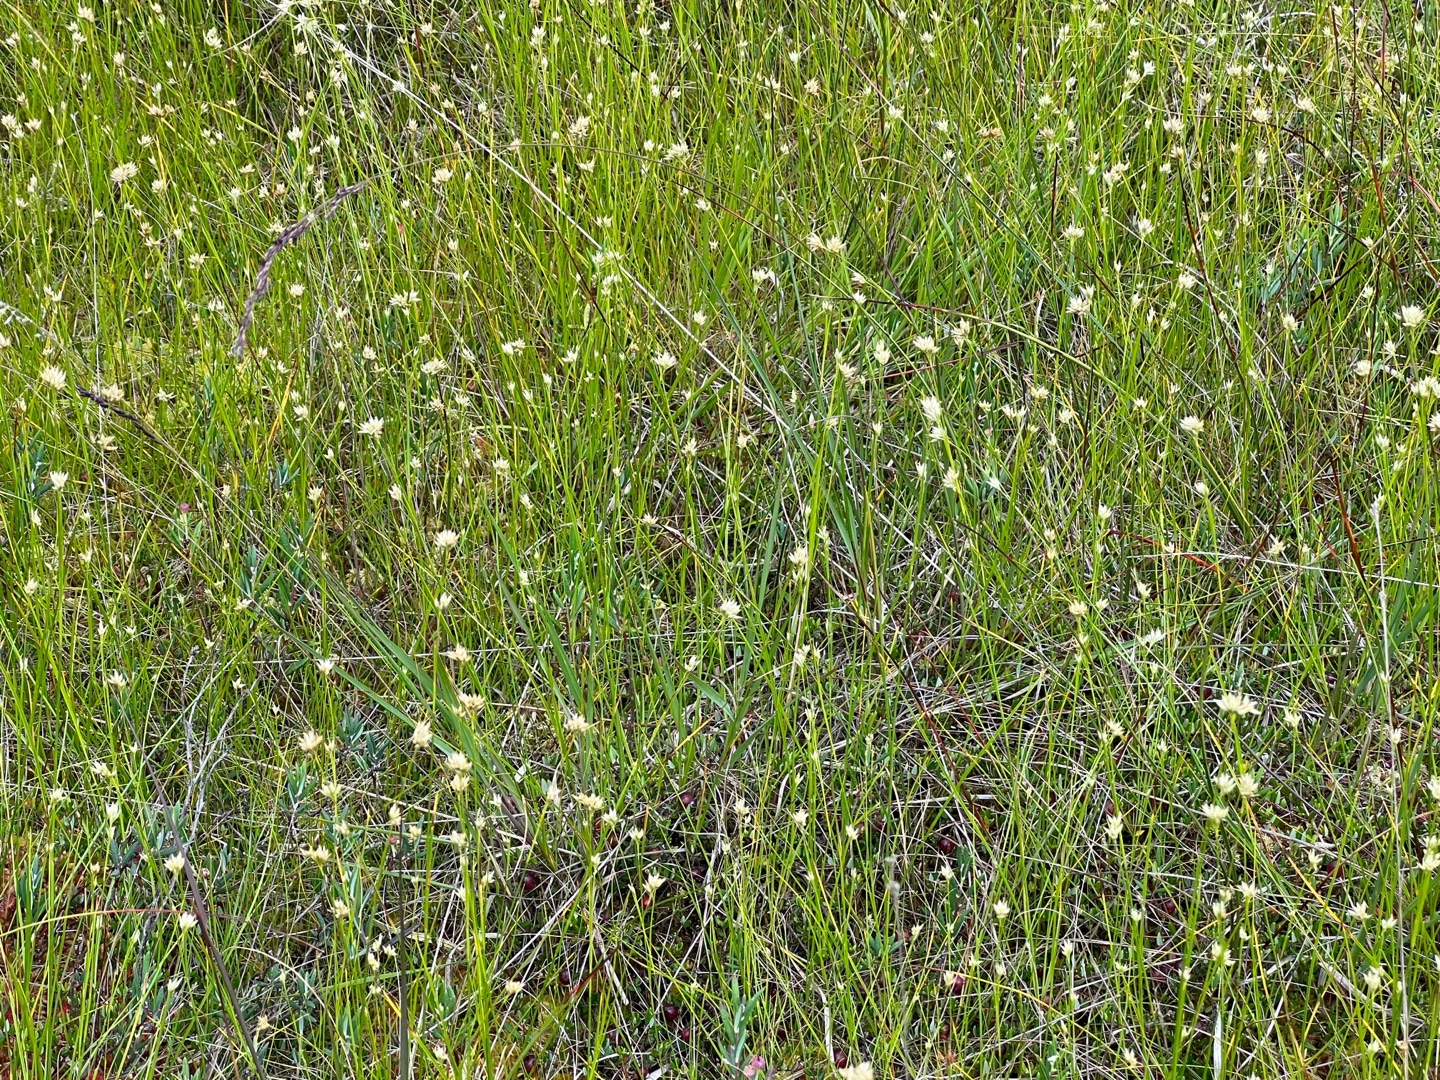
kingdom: Plantae
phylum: Tracheophyta
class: Liliopsida
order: Poales
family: Cyperaceae
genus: Rhynchospora
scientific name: Rhynchospora alba
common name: Hvid næbfrø
